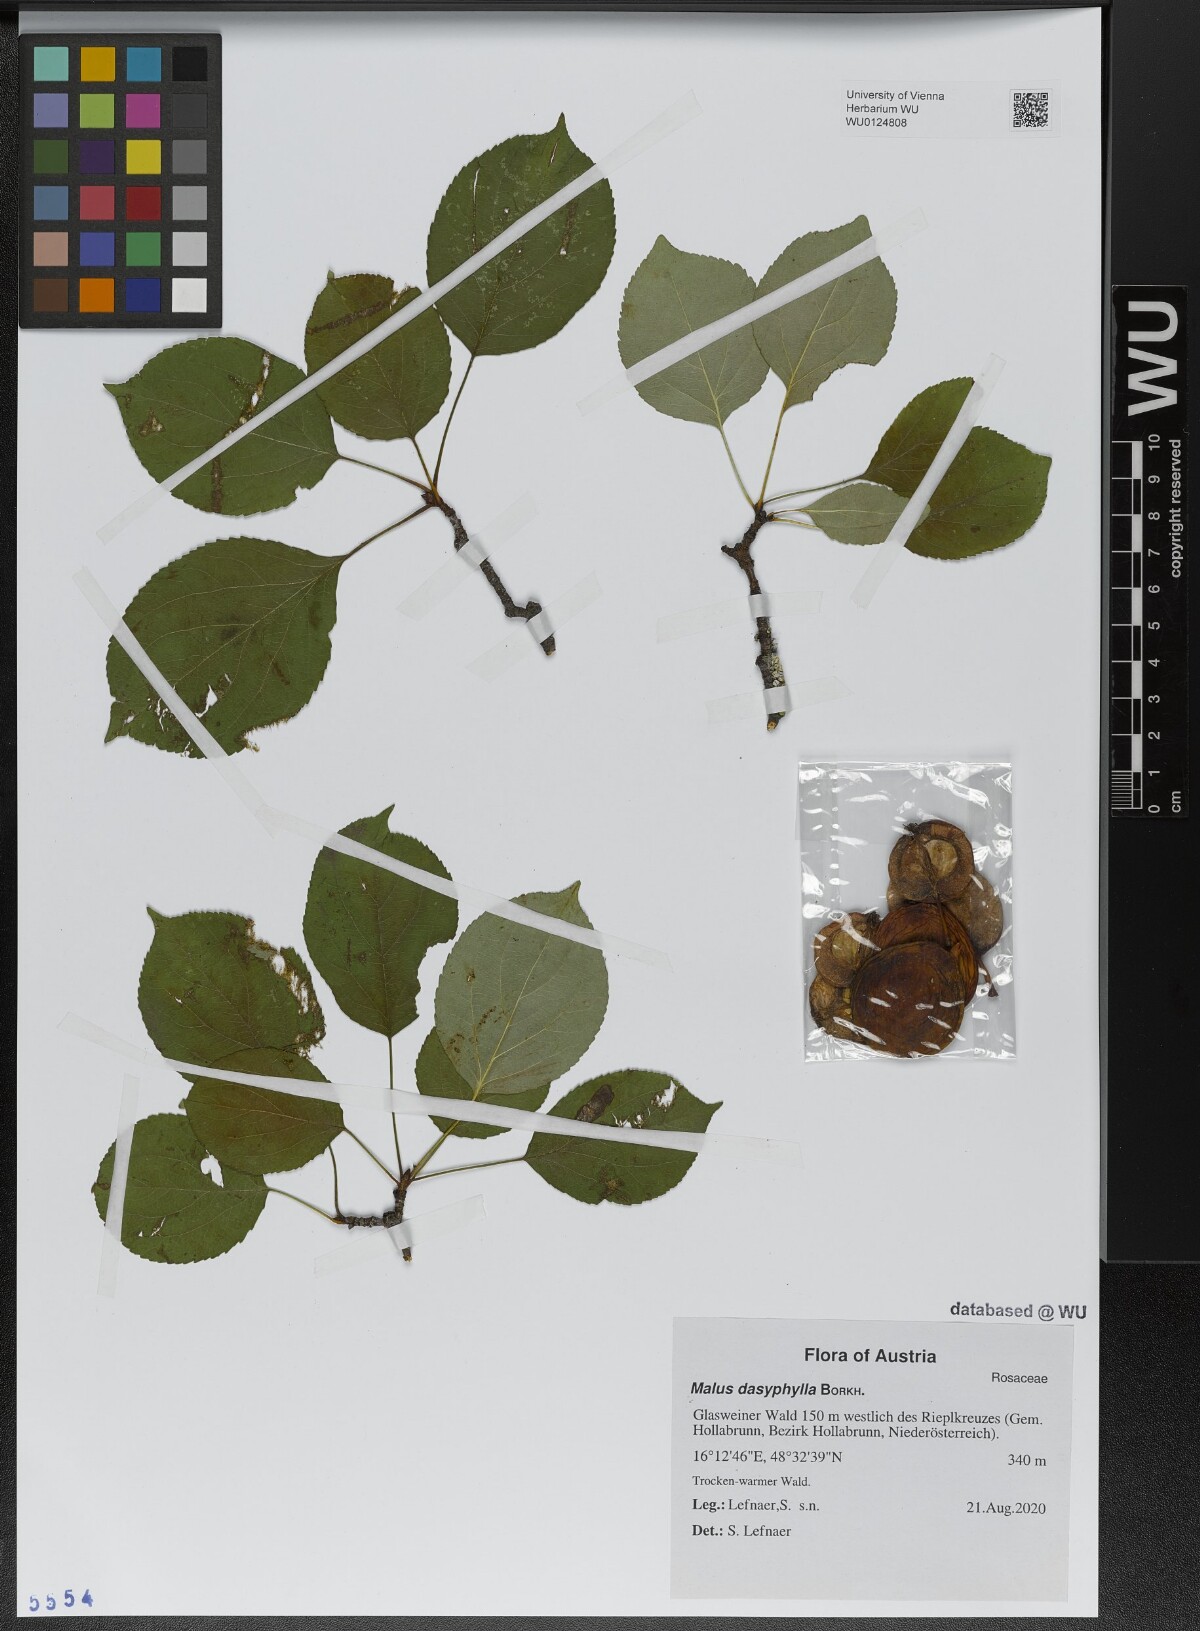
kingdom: Plantae
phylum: Tracheophyta
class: Magnoliopsida
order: Rosales
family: Rosaceae
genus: Malus
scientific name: Malus dasyphylla
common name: Paradise apple
